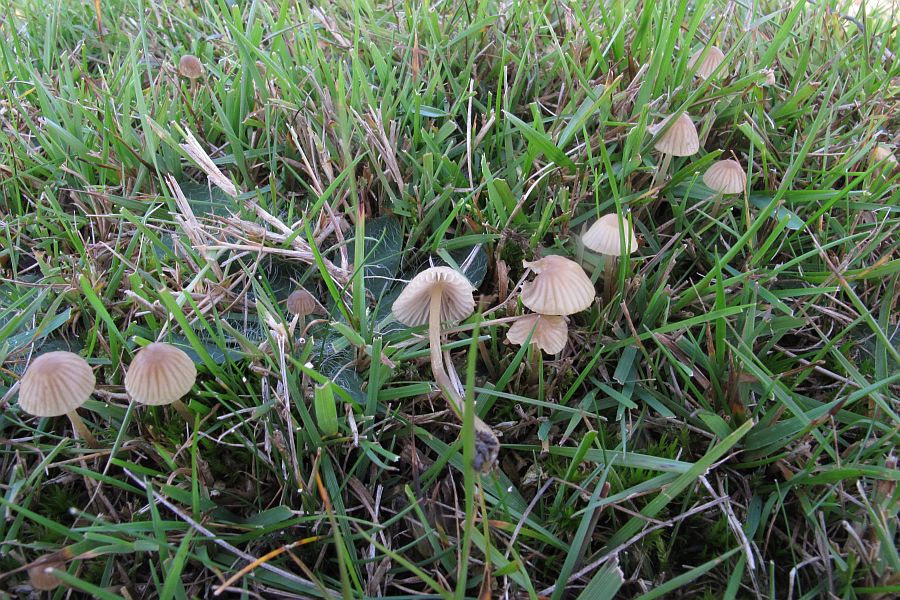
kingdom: Fungi
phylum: Basidiomycota
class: Agaricomycetes
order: Agaricales
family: Mycenaceae
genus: Mycena
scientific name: Mycena olivaceomarginata
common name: brunægget huesvamp
